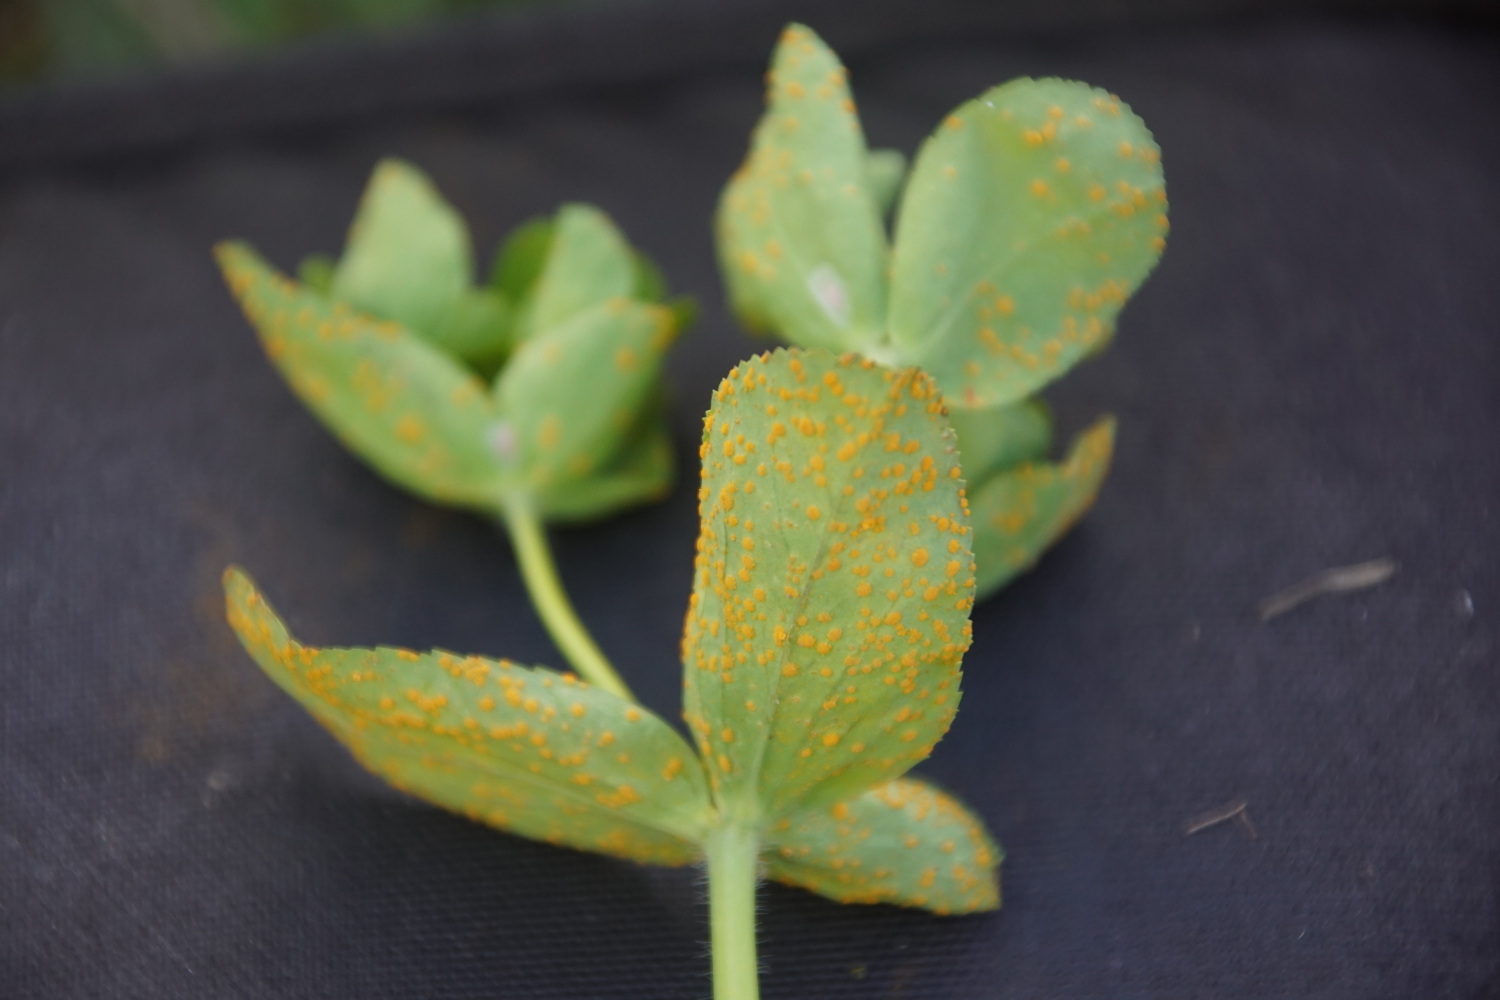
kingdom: Fungi
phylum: Basidiomycota
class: Pucciniomycetes
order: Pucciniales
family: Melampsoraceae
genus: Melampsora
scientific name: Melampsora euphorbiae
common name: vortemælk-skorperust
